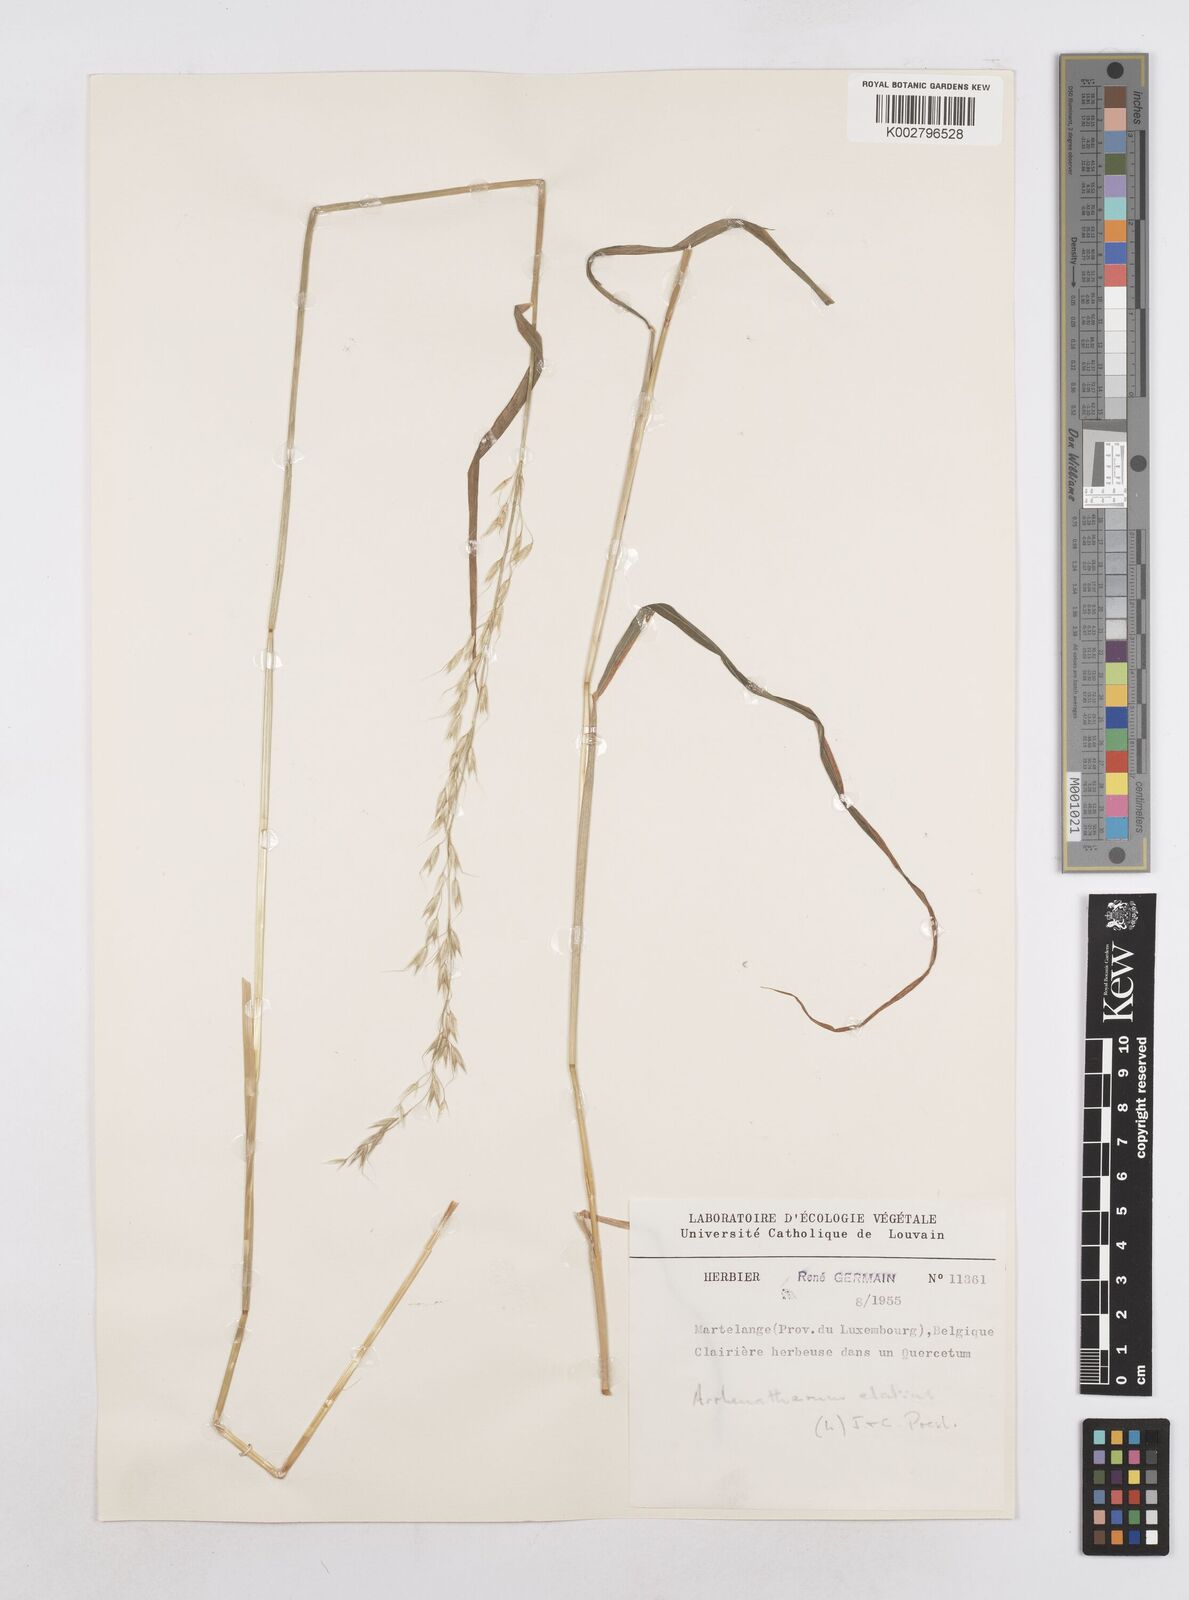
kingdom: Plantae
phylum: Tracheophyta
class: Liliopsida
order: Poales
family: Poaceae
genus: Arrhenatherum
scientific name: Arrhenatherum elatius
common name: Tall oatgrass
